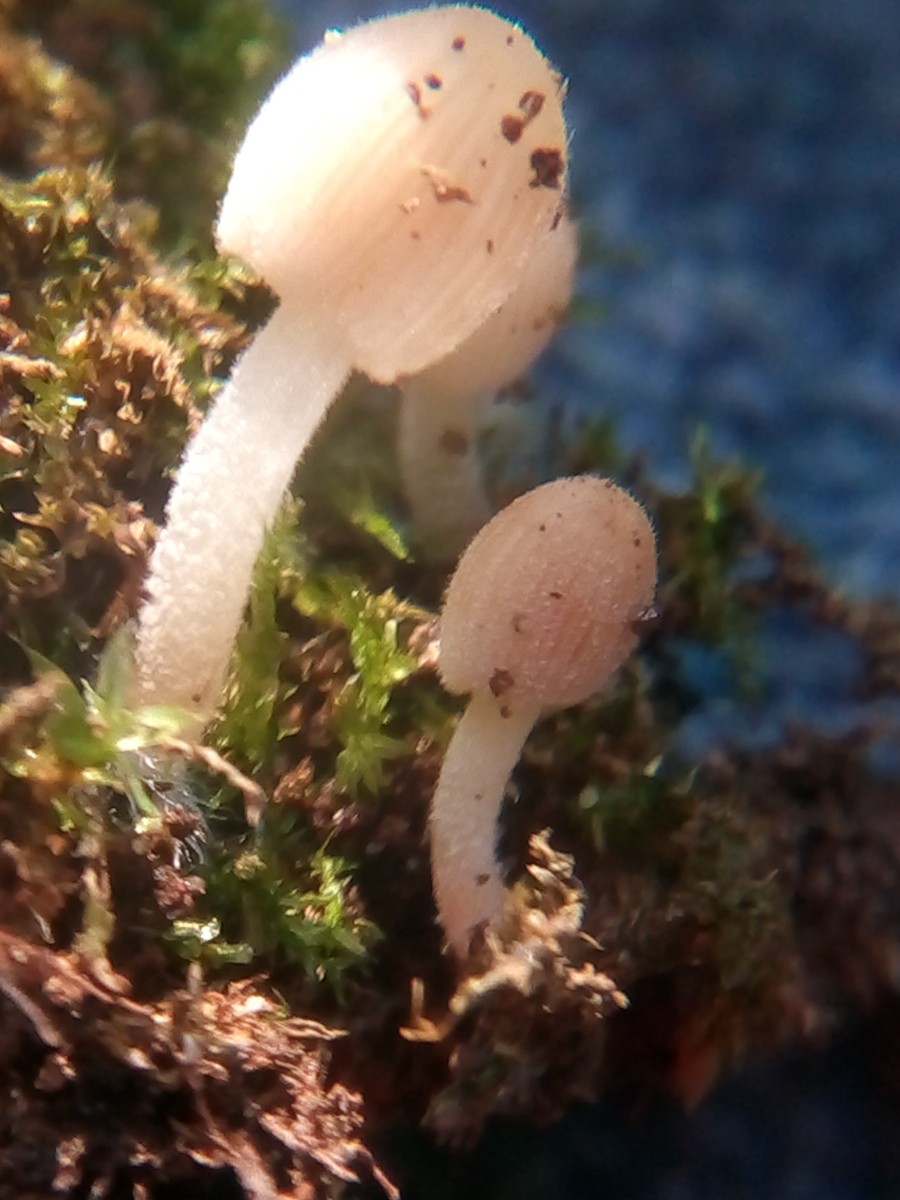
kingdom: Fungi
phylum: Basidiomycota
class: Agaricomycetes
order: Agaricales
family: Psathyrellaceae
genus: Coprinellus
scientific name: Coprinellus
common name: blækhat
